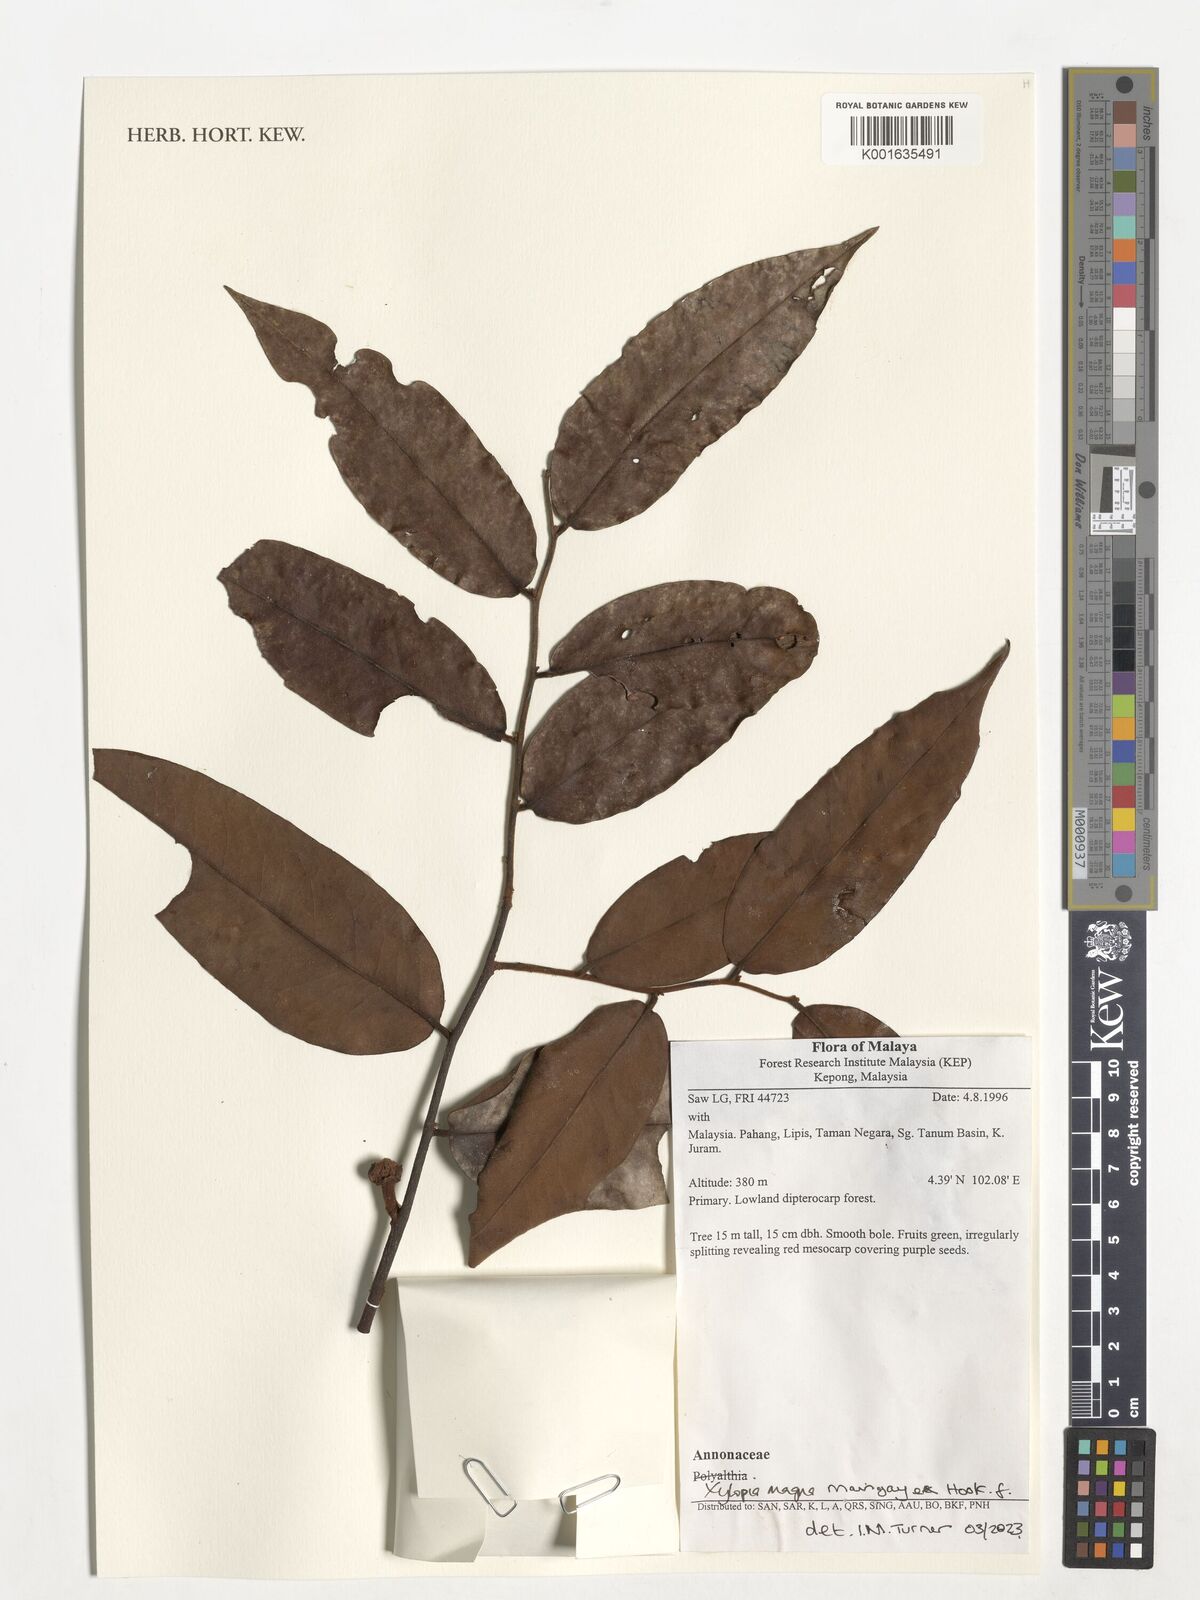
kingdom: Plantae
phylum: Tracheophyta
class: Magnoliopsida
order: Magnoliales
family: Annonaceae
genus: Xylopia
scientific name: Xylopia magna
